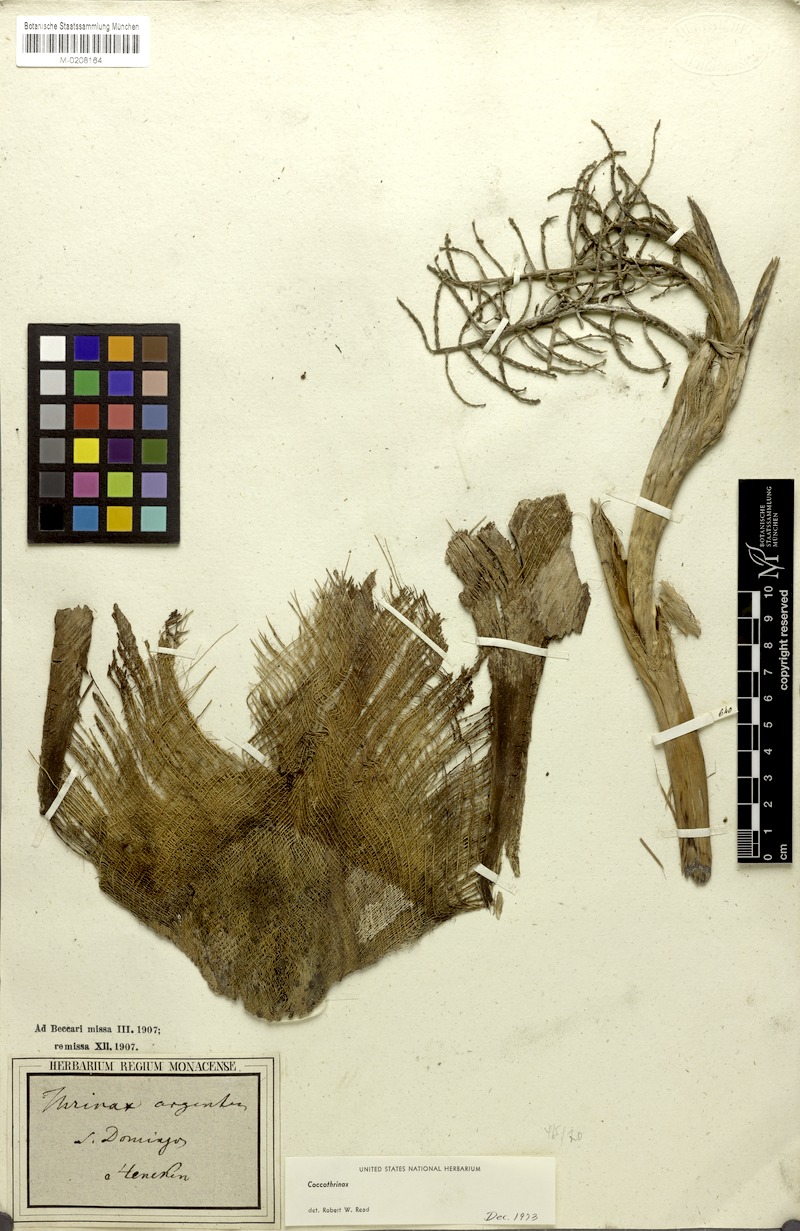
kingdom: Plantae
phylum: Tracheophyta
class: Liliopsida
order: Arecales
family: Arecaceae
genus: Coccothrinax
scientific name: Coccothrinax argentea
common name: Broom palm
